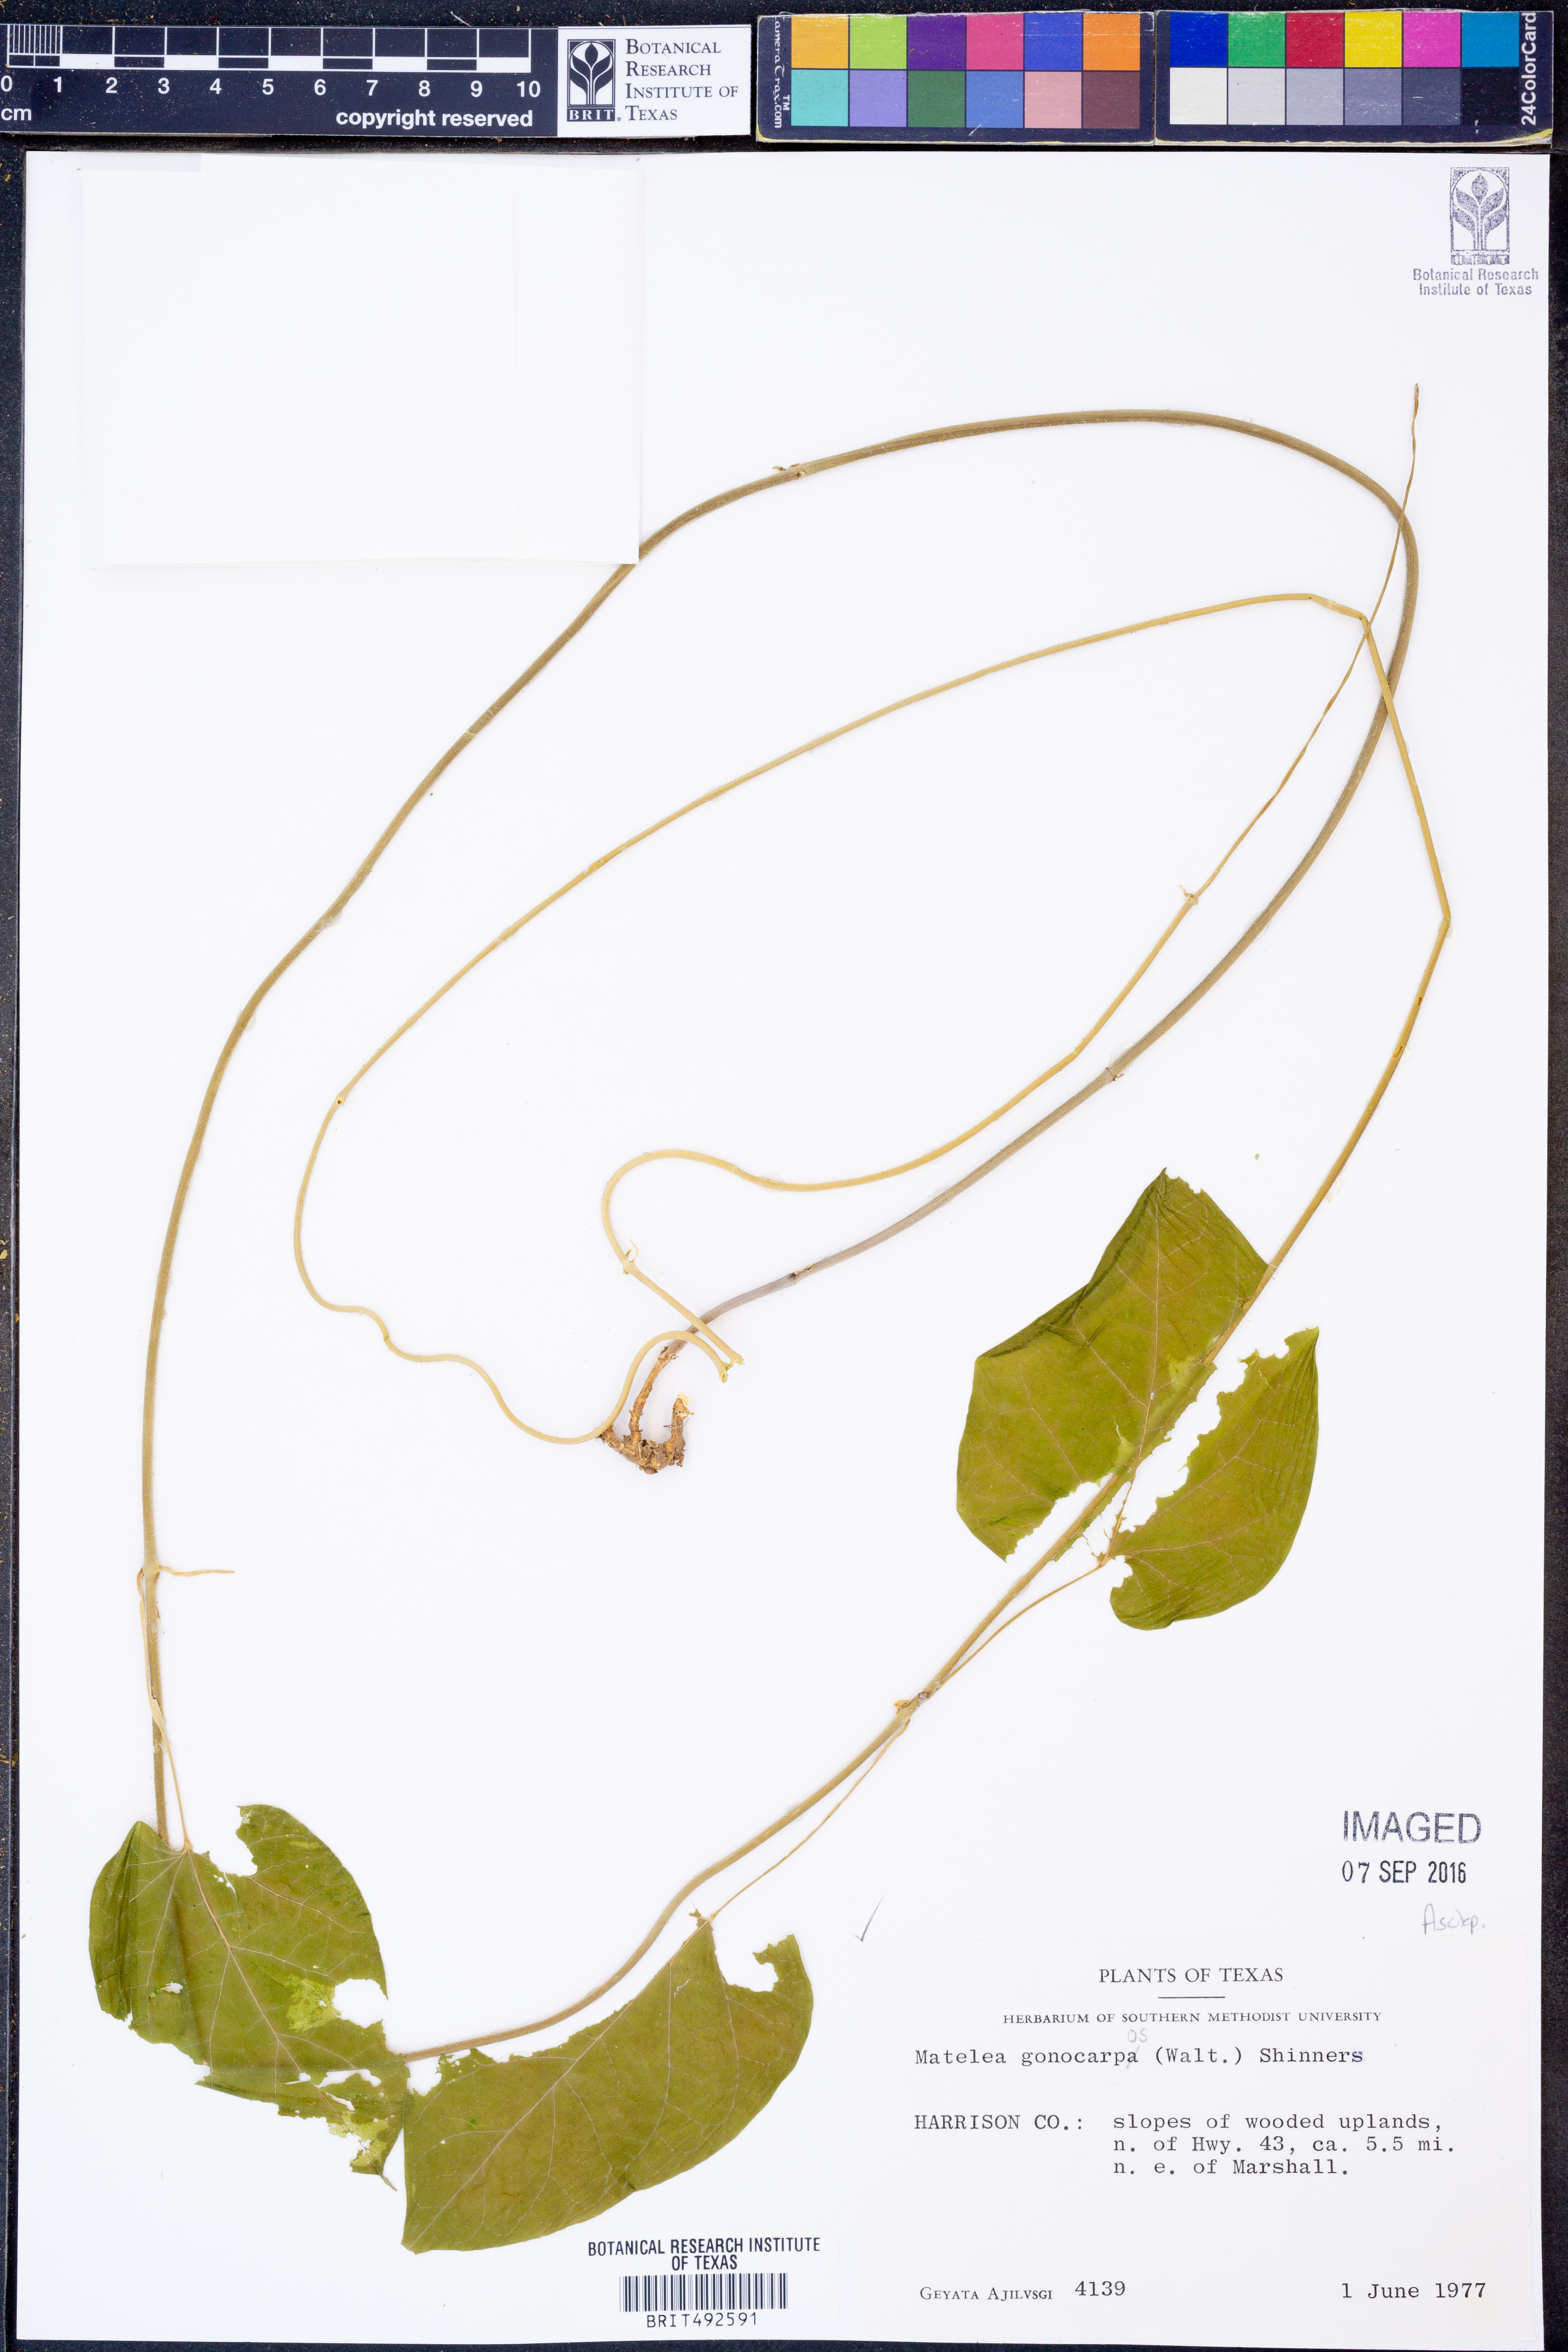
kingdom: Plantae
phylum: Tracheophyta
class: Magnoliopsida
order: Gentianales
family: Apocynaceae
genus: Gonolobus
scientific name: Gonolobus gonocarpus
